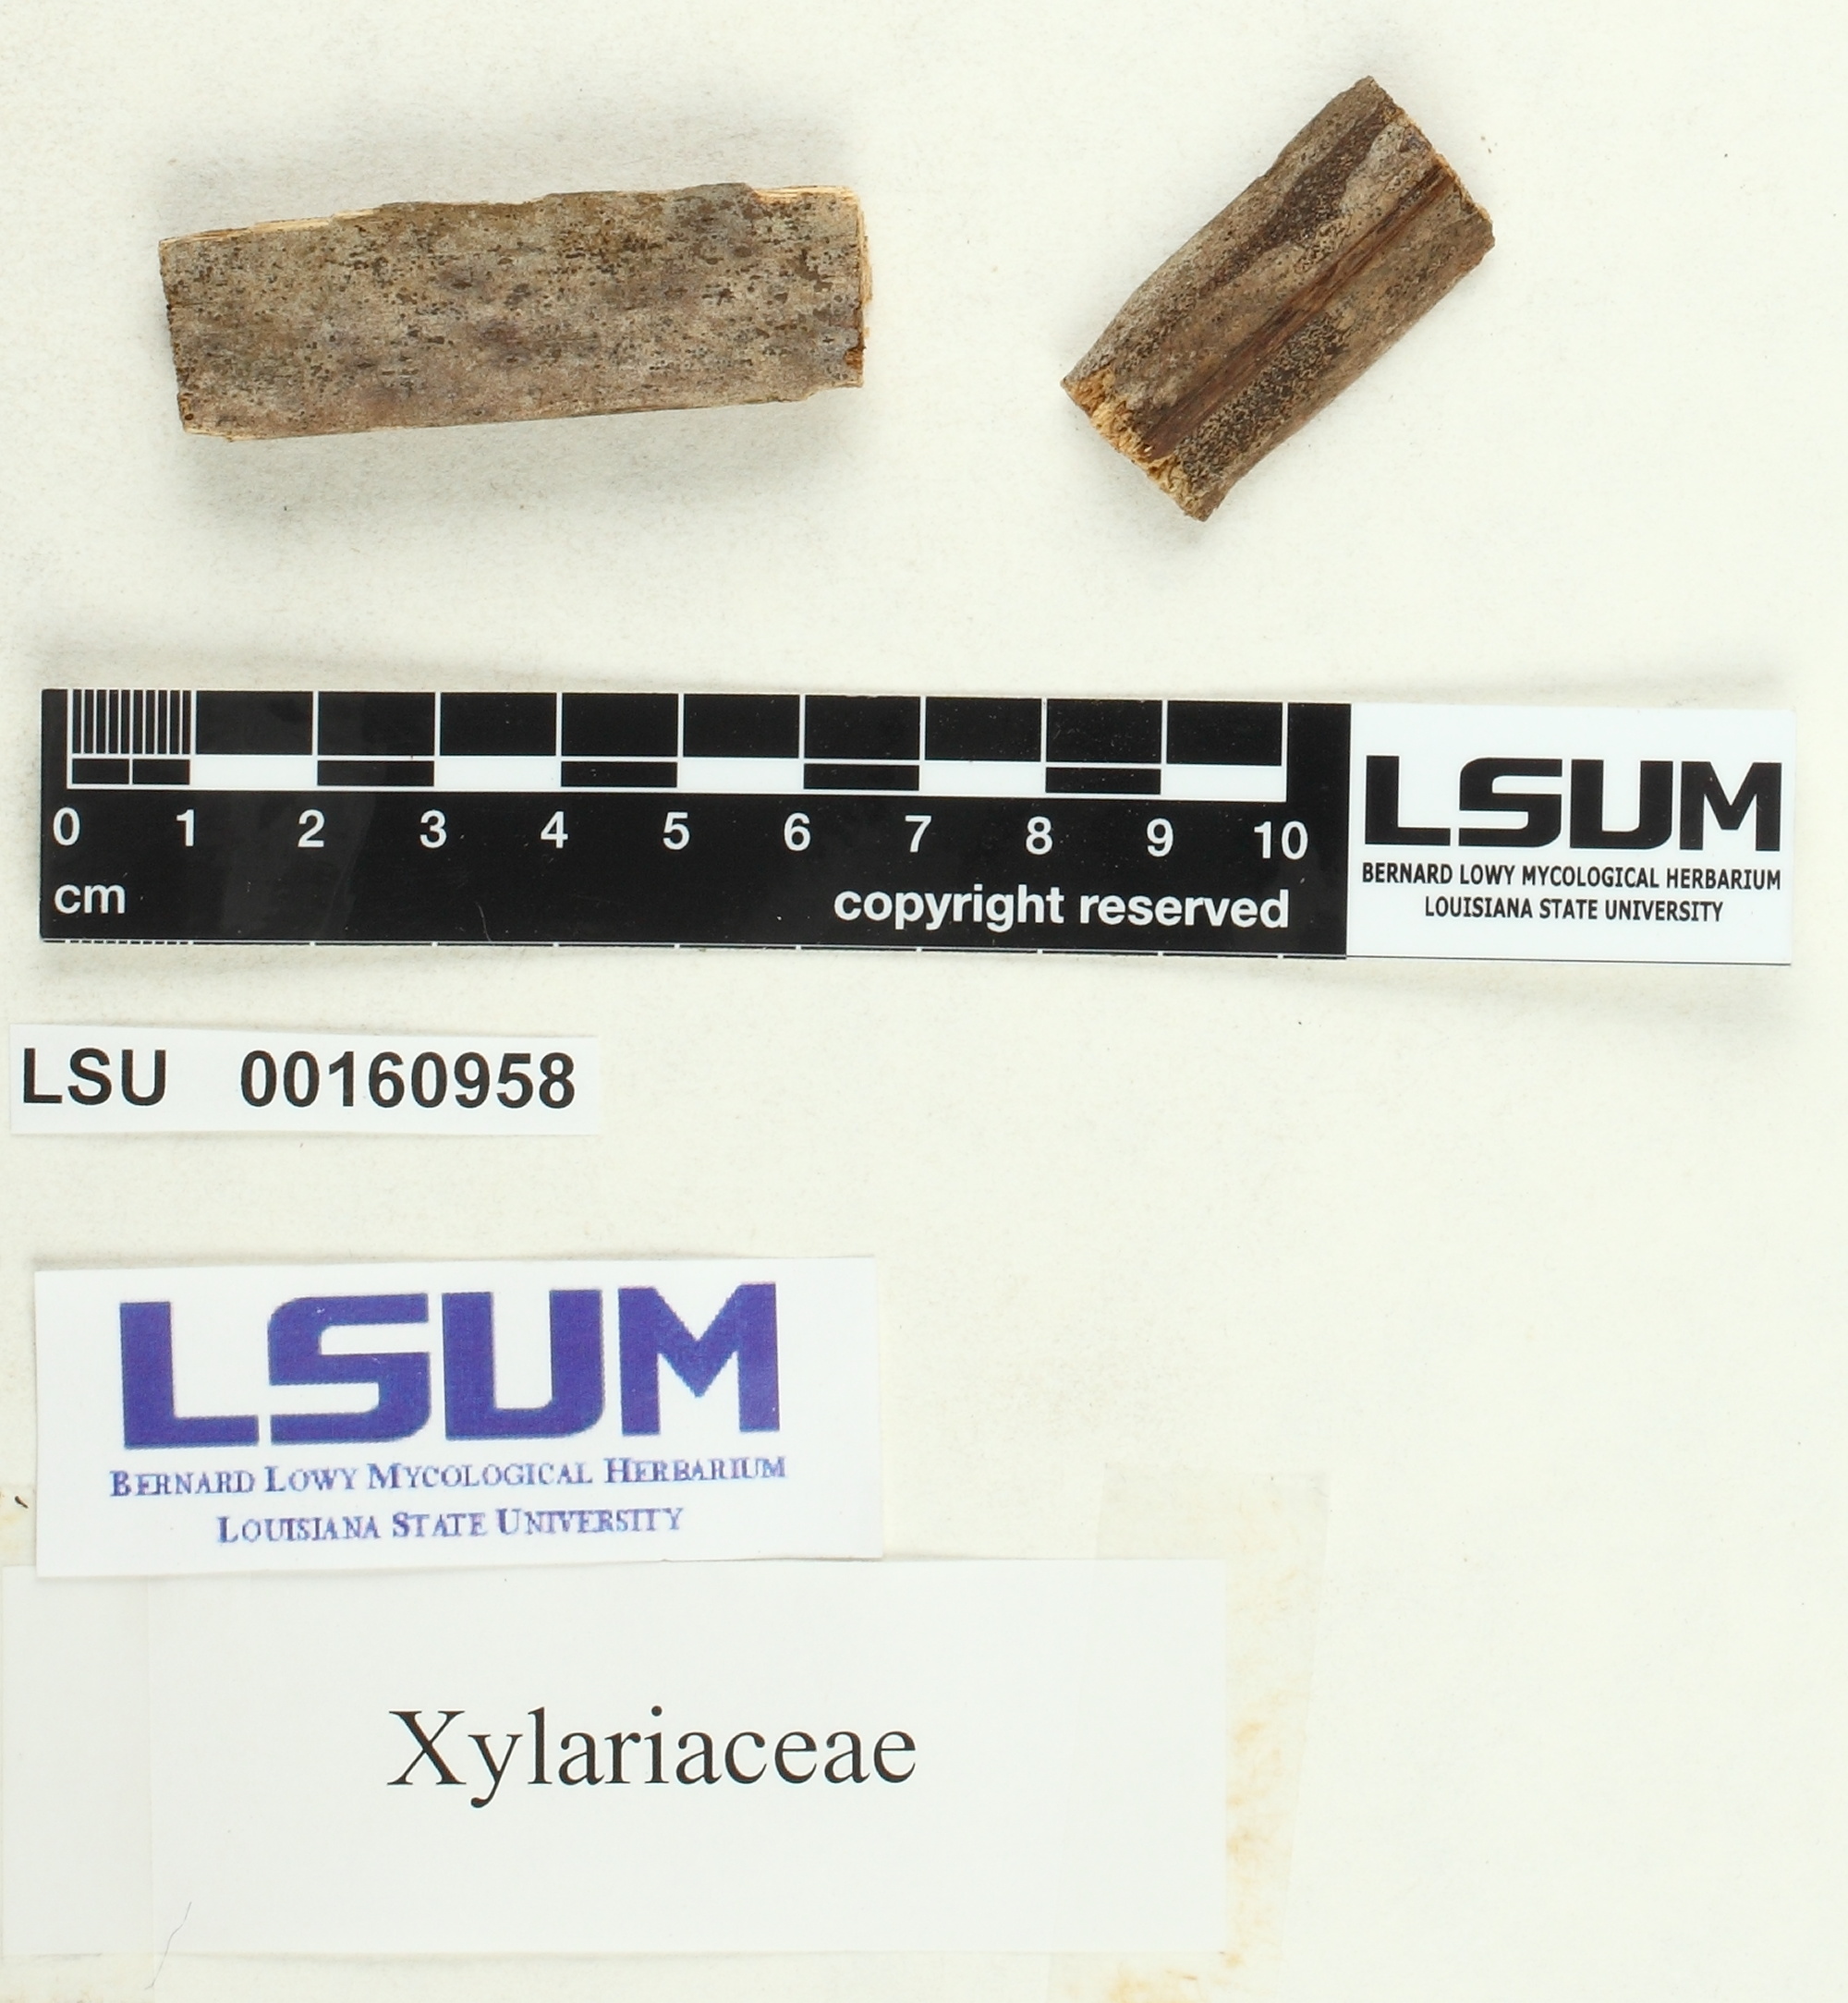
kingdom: Fungi
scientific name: Fungi
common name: Fungi
